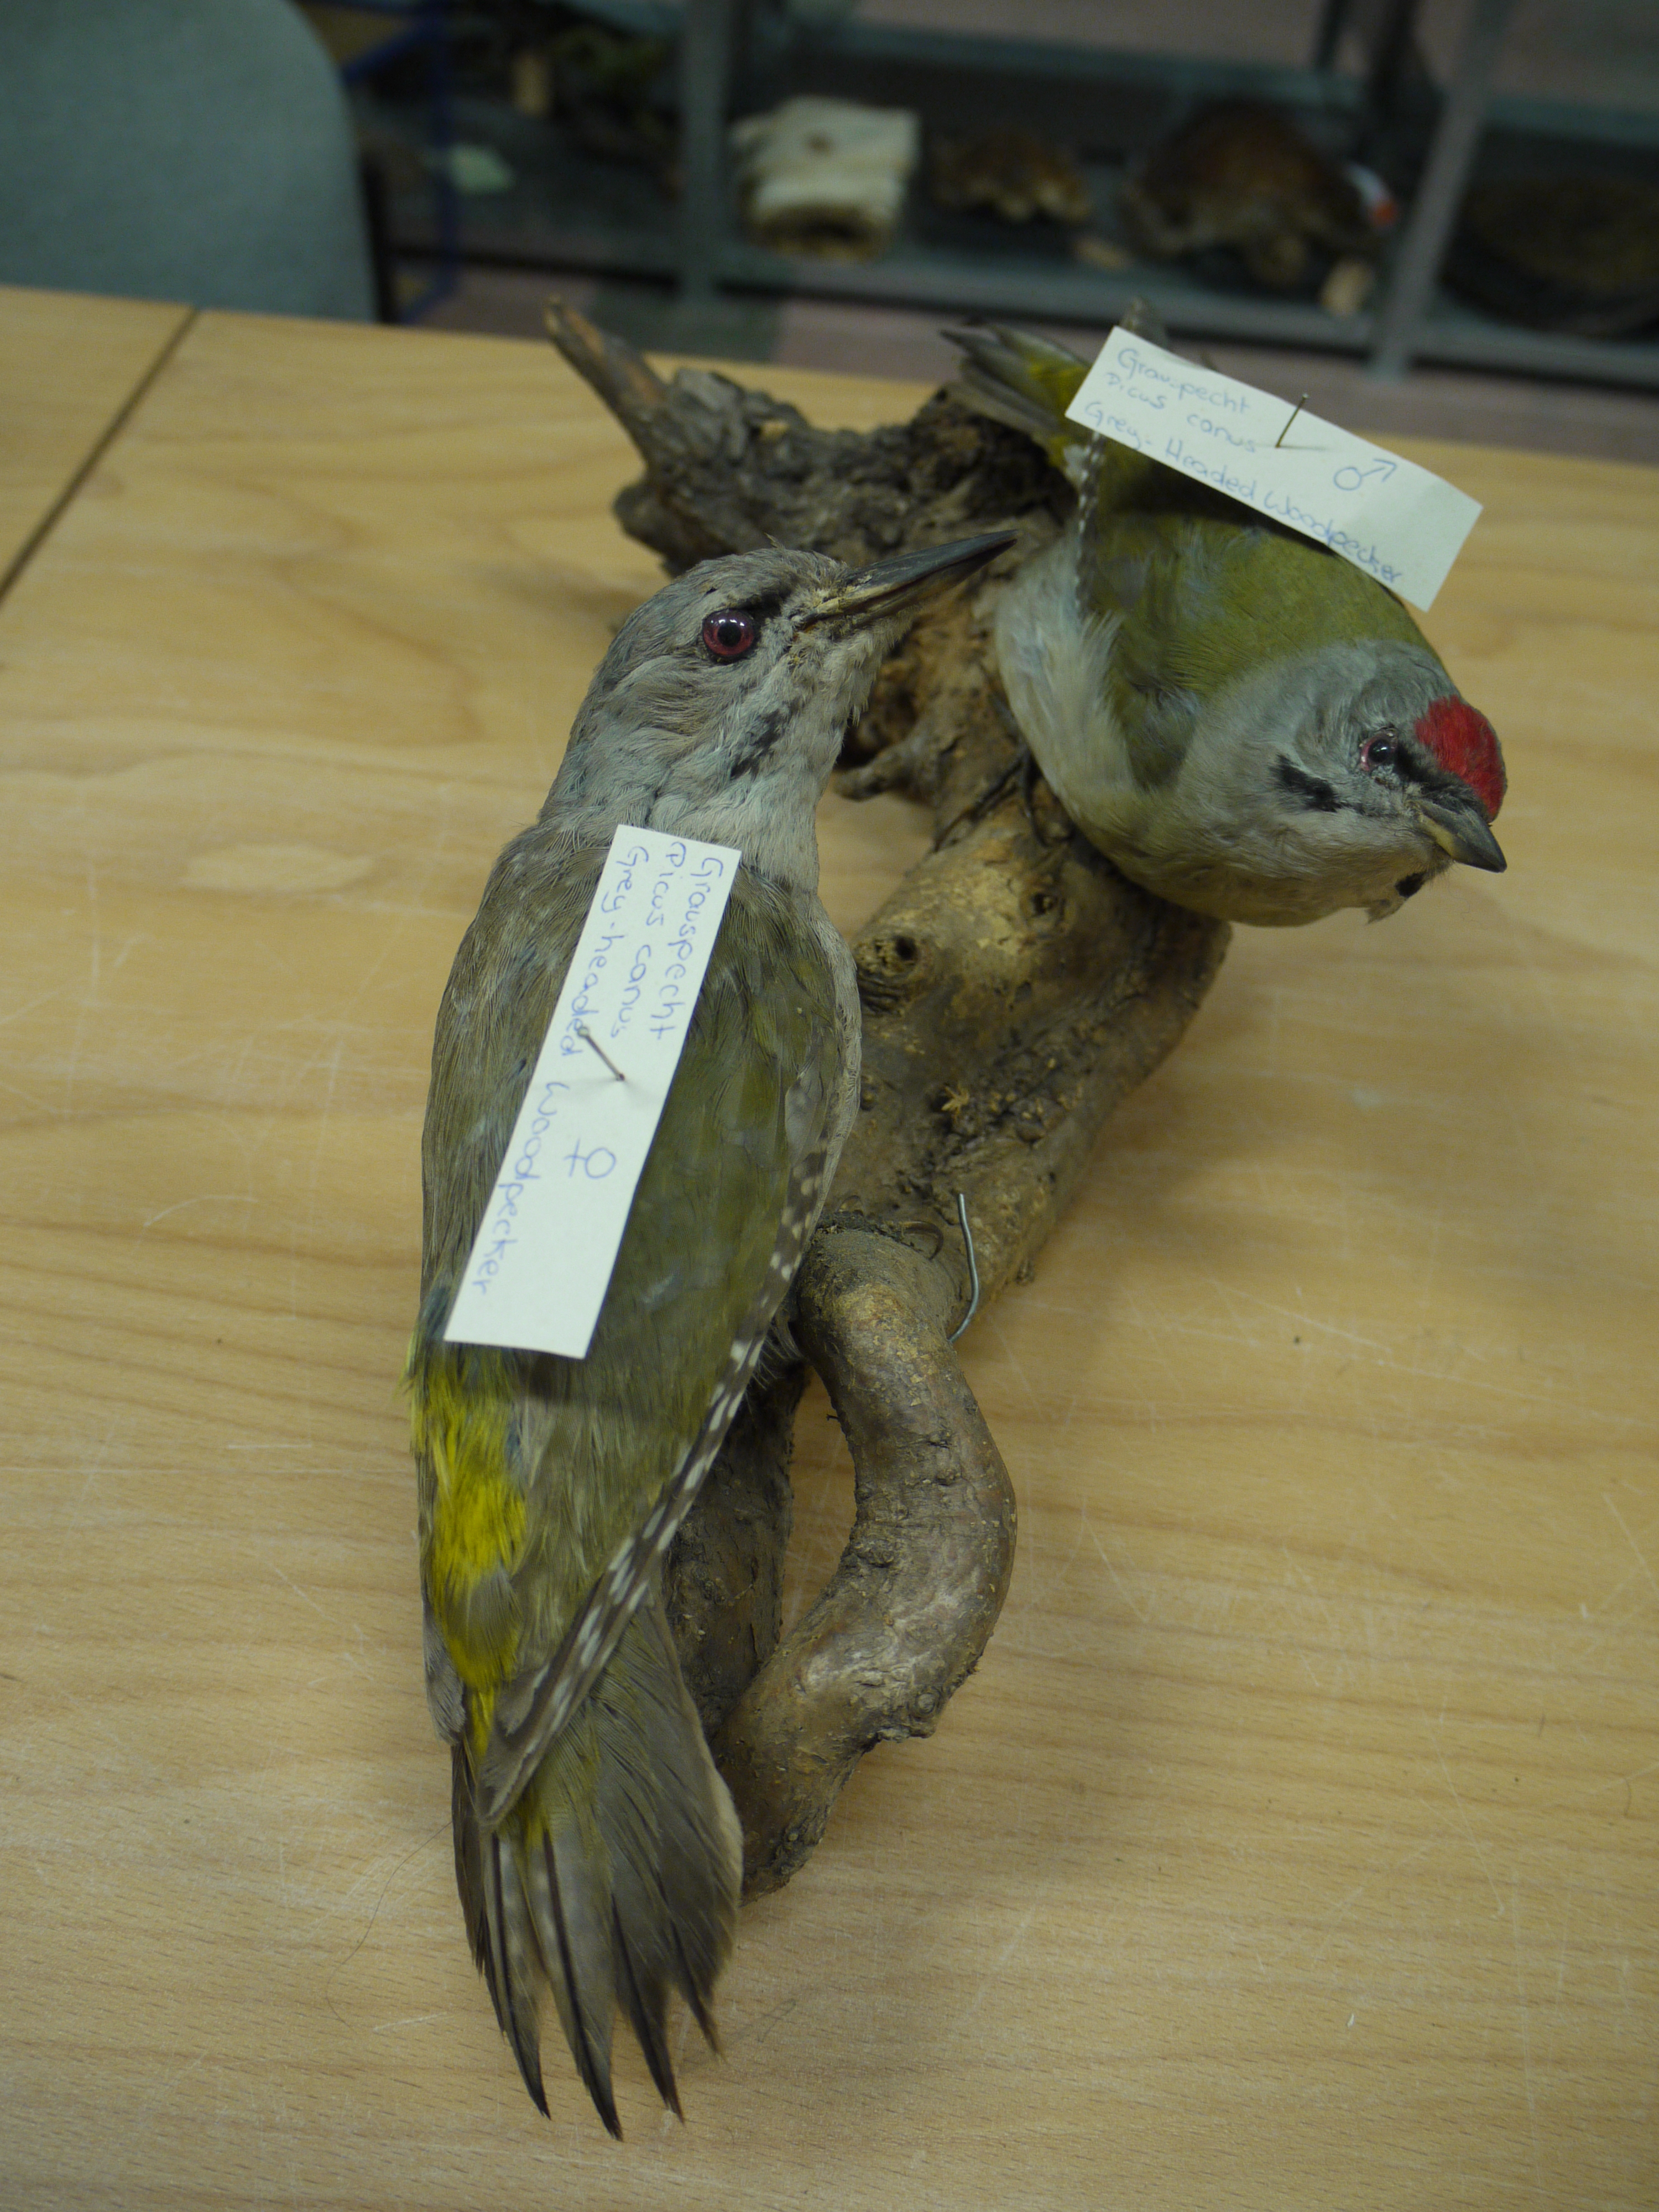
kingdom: Animalia
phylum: Chordata
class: Aves
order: Piciformes
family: Picidae
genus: Picus
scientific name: Picus canus
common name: Grey-headed woodpecker
